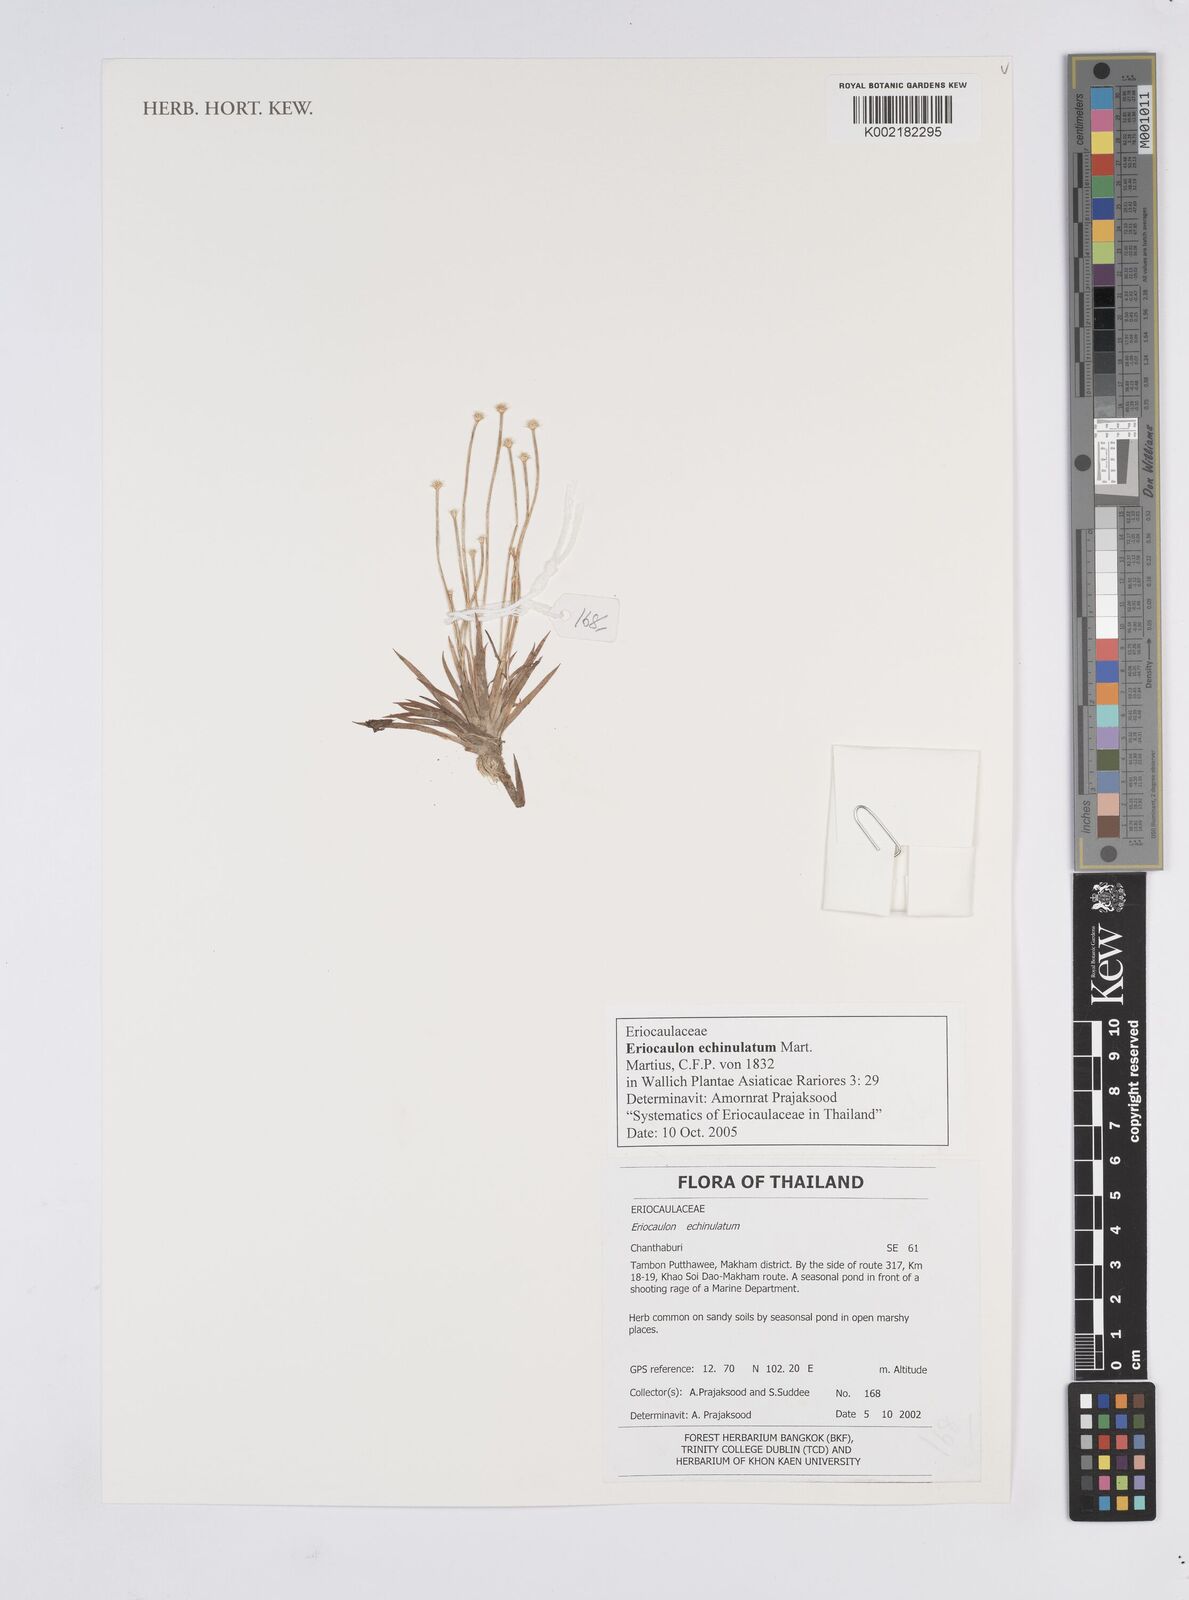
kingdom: Plantae
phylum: Tracheophyta
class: Liliopsida
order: Poales
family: Eriocaulaceae
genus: Eriocaulon
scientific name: Eriocaulon echinulatum
